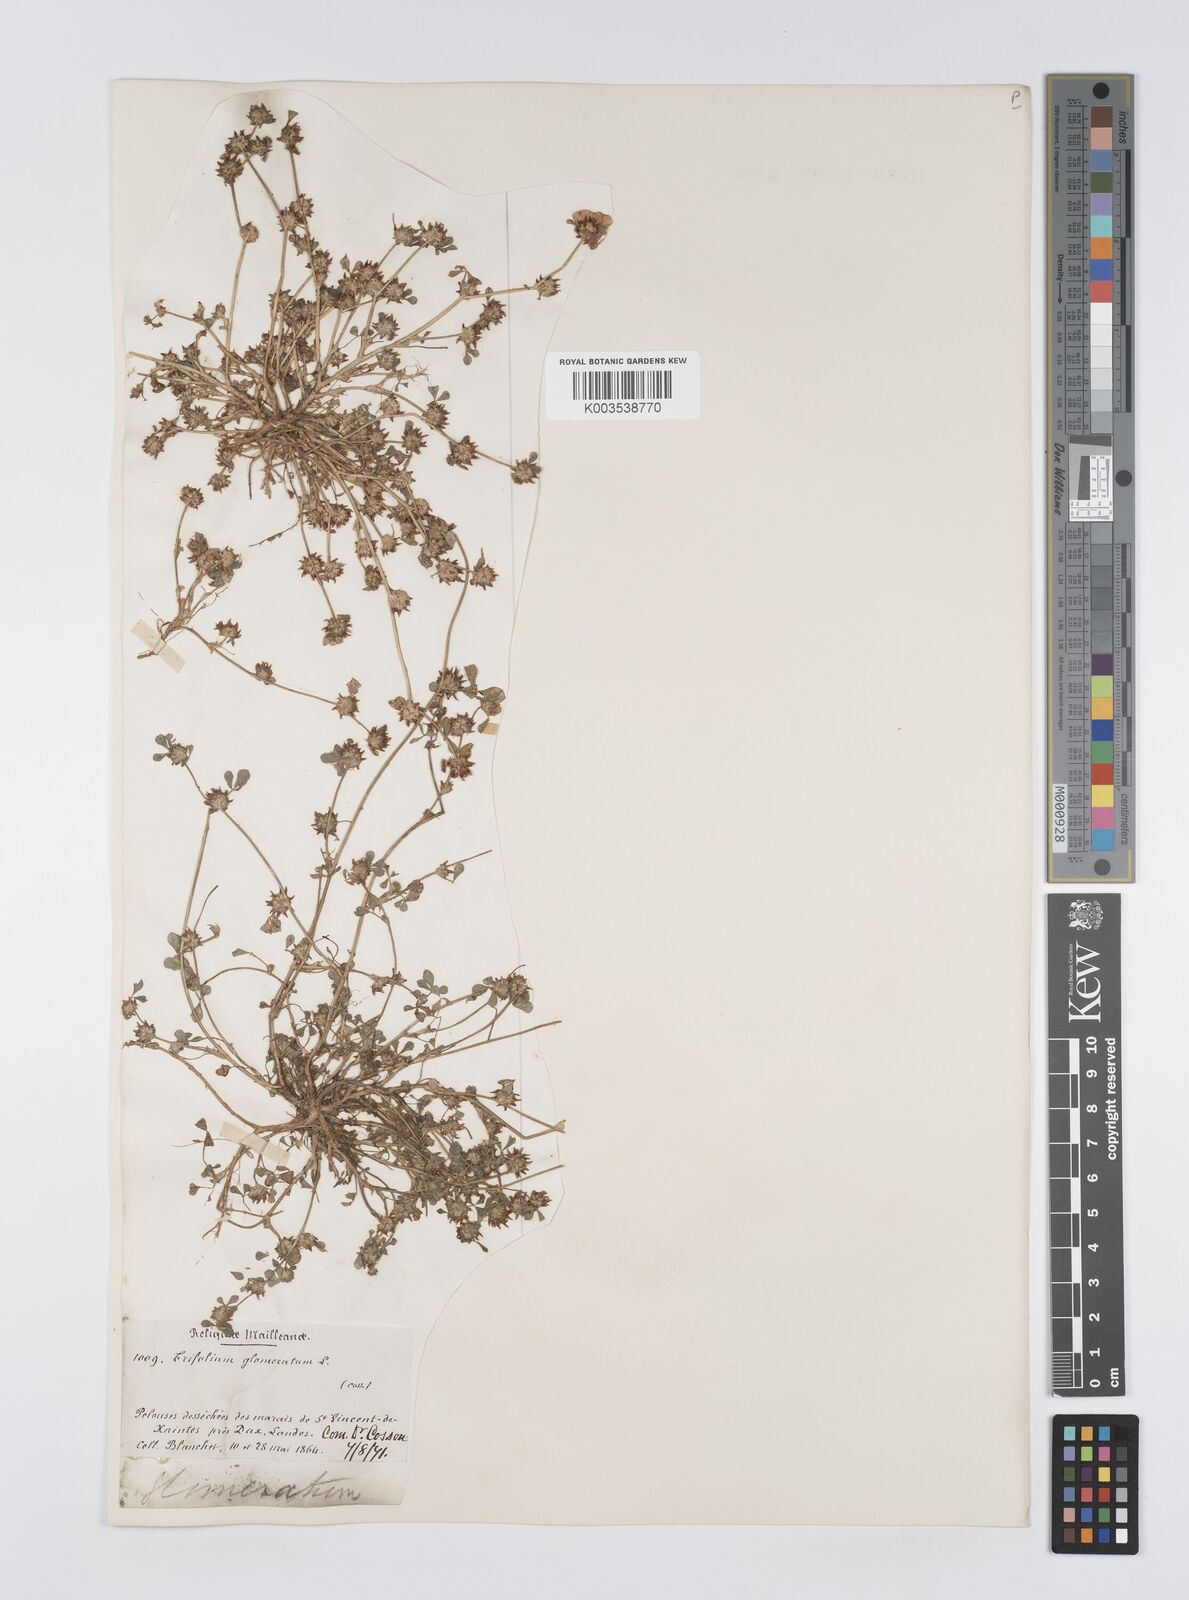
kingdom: Plantae
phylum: Tracheophyta
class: Magnoliopsida
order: Fabales
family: Fabaceae
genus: Trifolium
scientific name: Trifolium glomeratum
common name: Clustered clover
